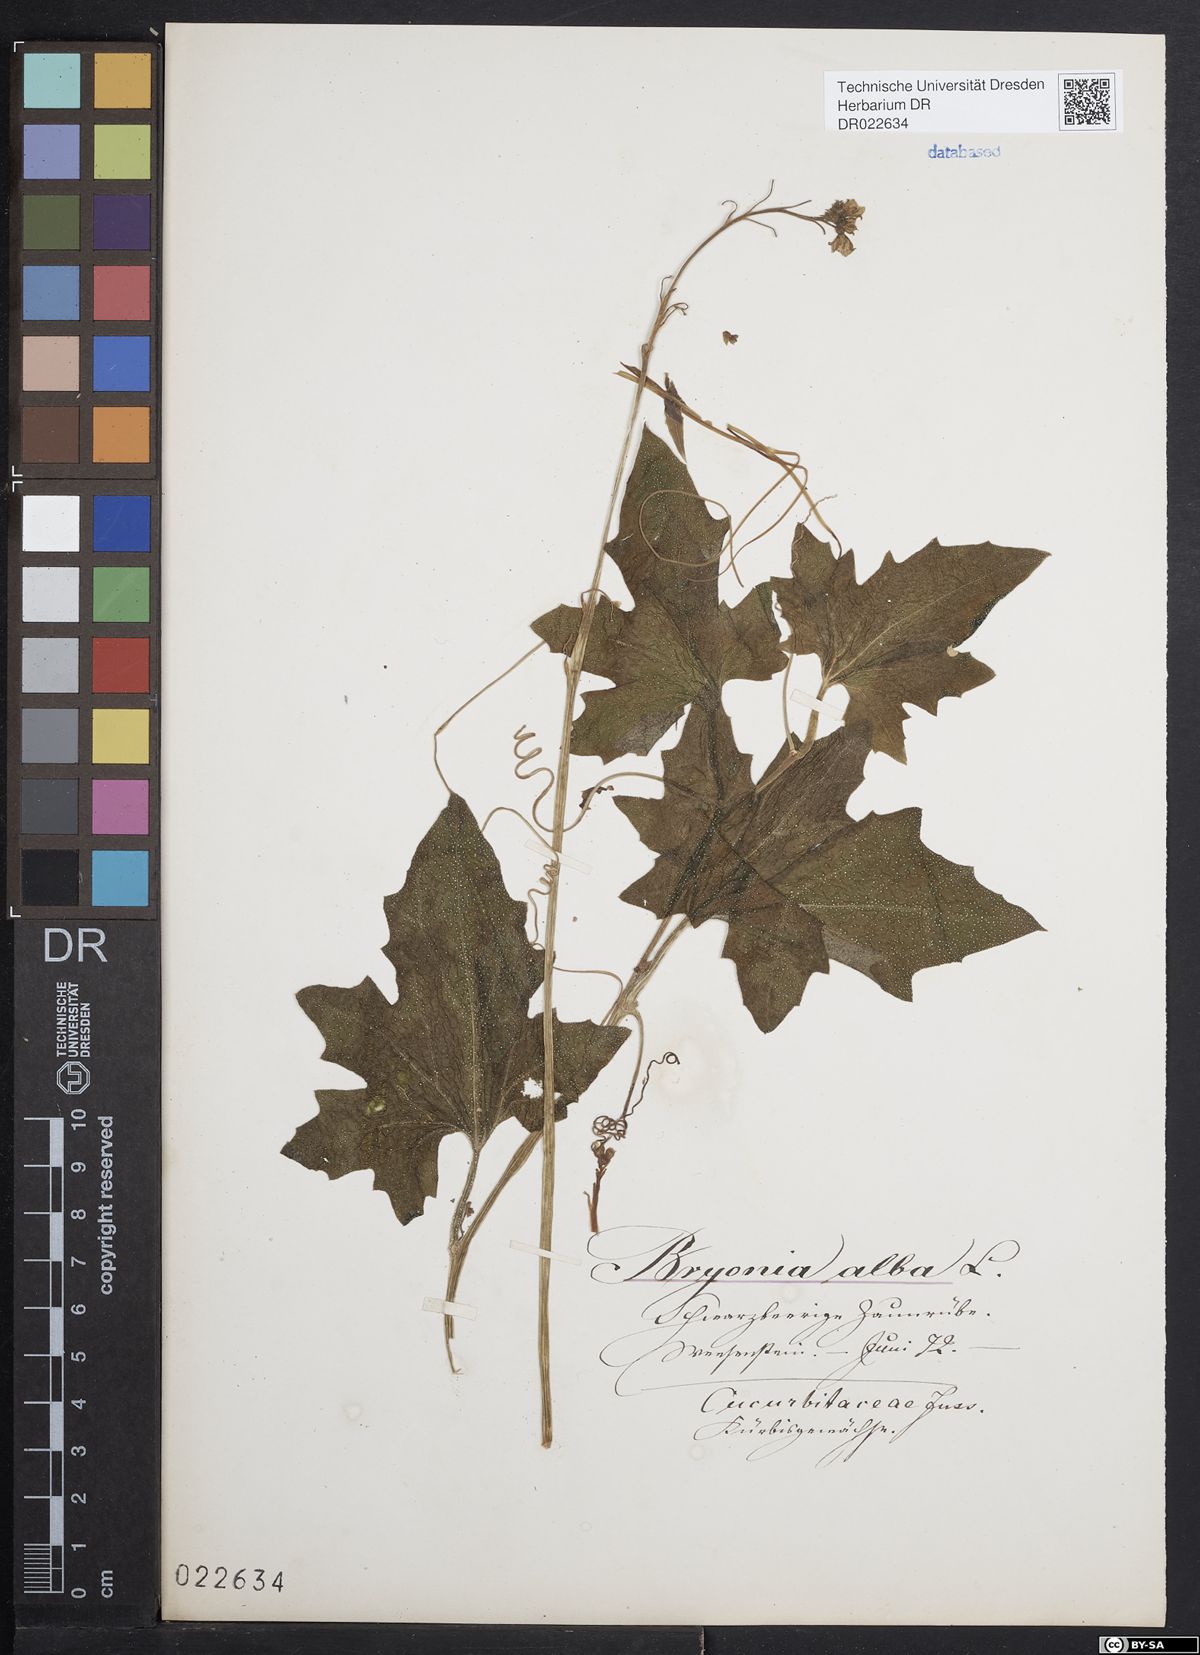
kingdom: Plantae
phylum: Tracheophyta
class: Magnoliopsida
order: Cucurbitales
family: Cucurbitaceae
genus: Bryonia
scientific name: Bryonia alba
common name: White bryony
